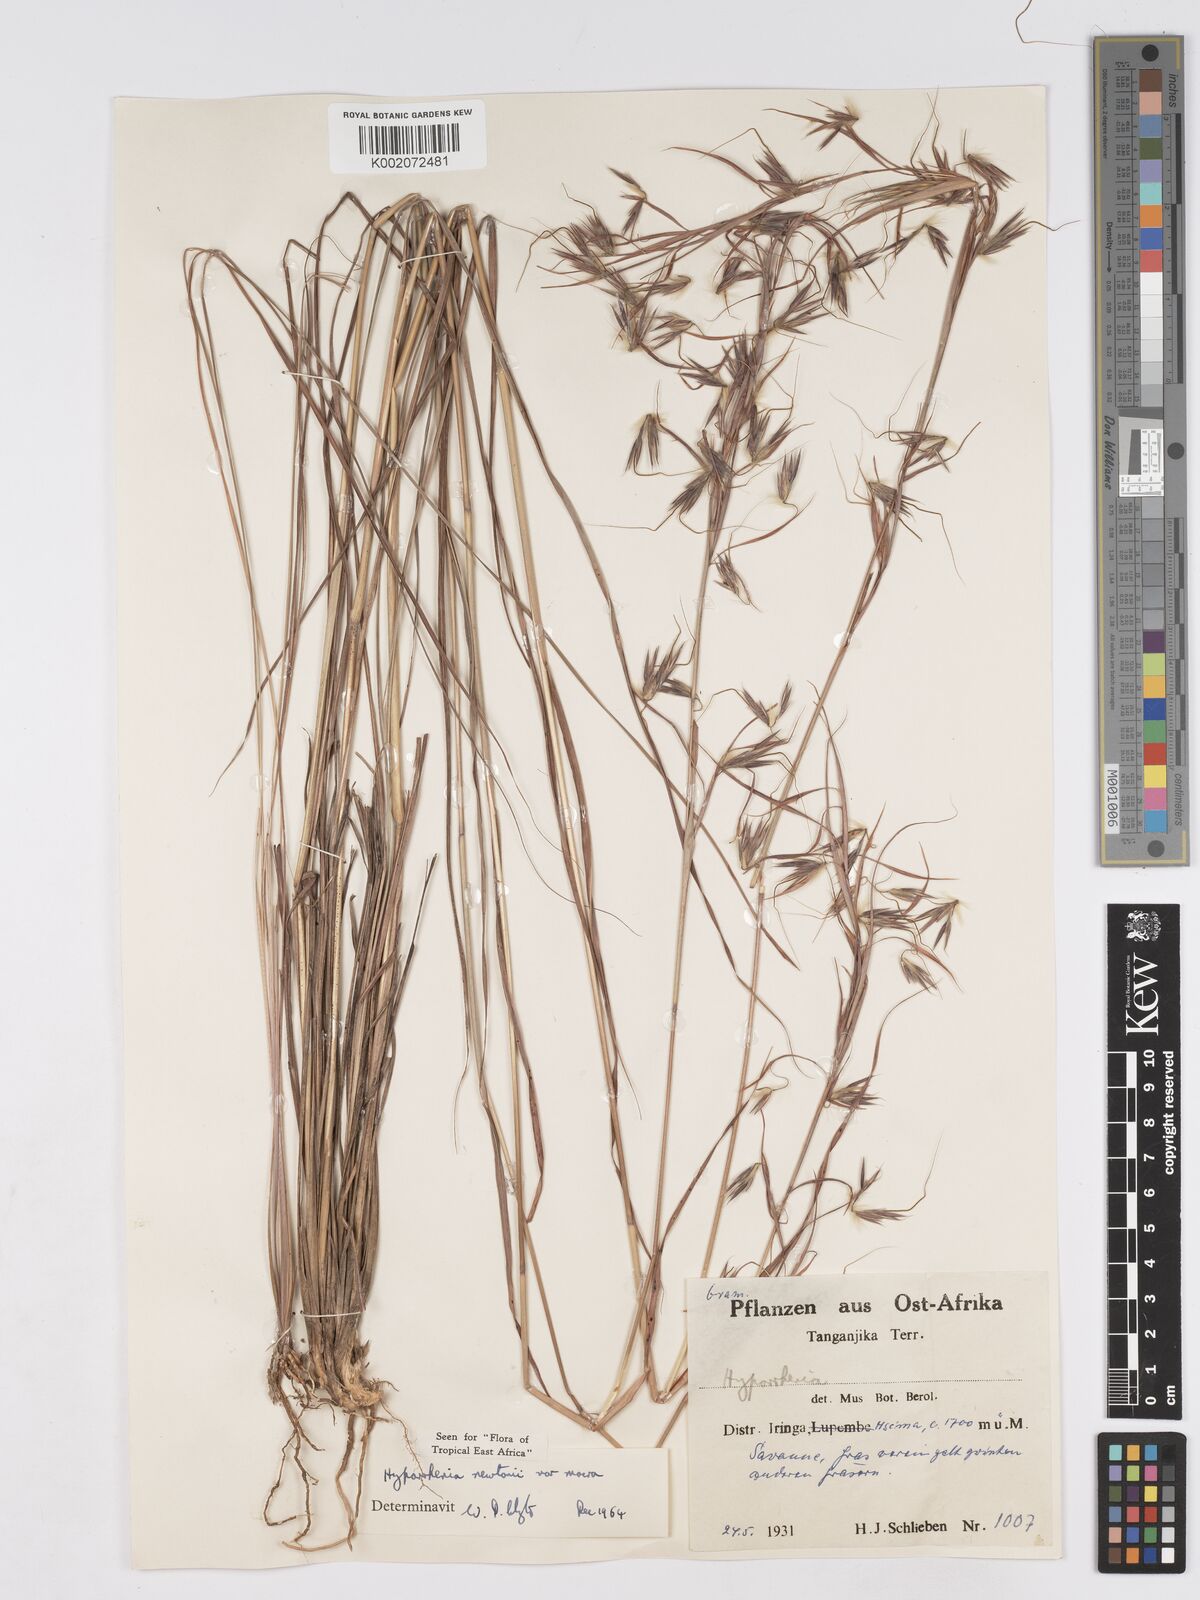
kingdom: Plantae
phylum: Tracheophyta
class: Liliopsida
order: Poales
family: Poaceae
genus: Hyparrhenia
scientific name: Hyparrhenia newtonii
